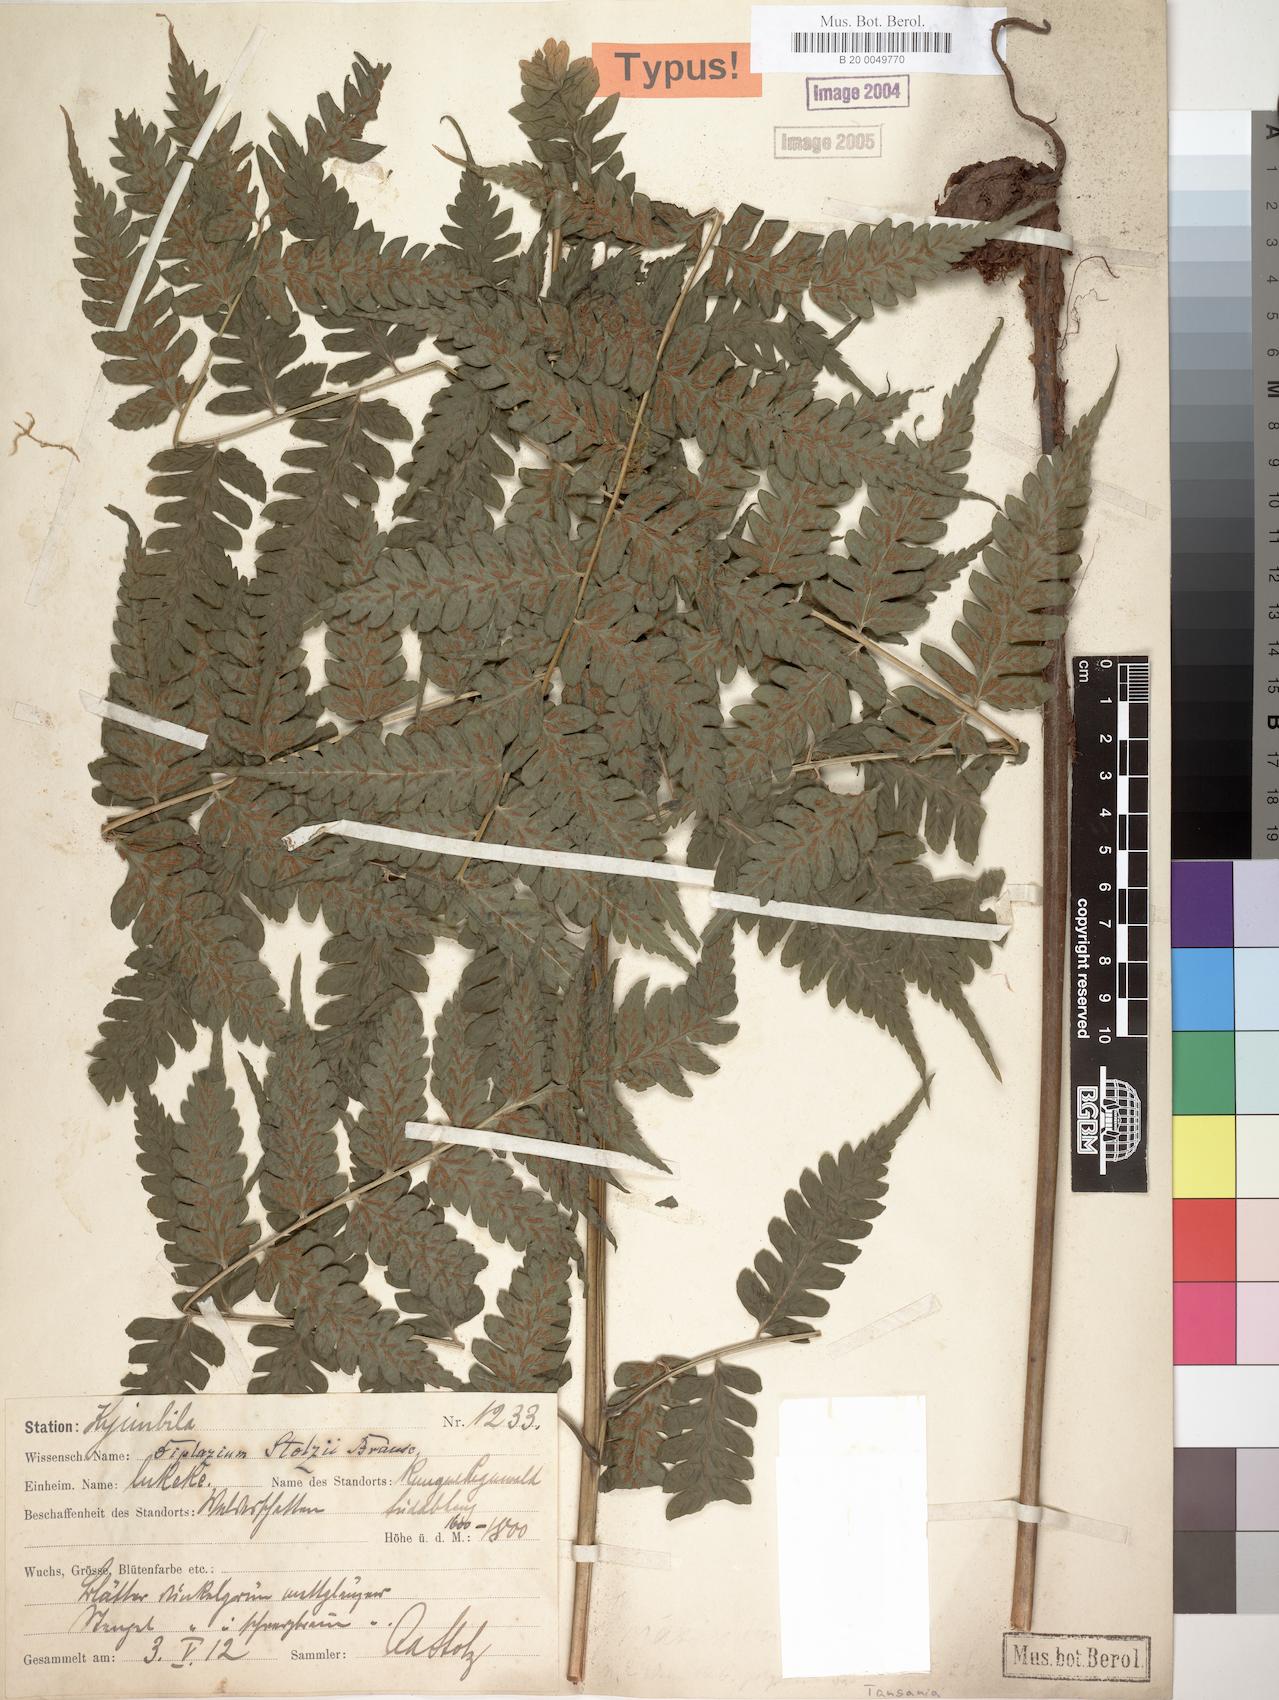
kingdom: Plantae
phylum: Tracheophyta
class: Polypodiopsida
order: Polypodiales
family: Athyriaceae
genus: Diplazium
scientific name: Diplazium nemorale
